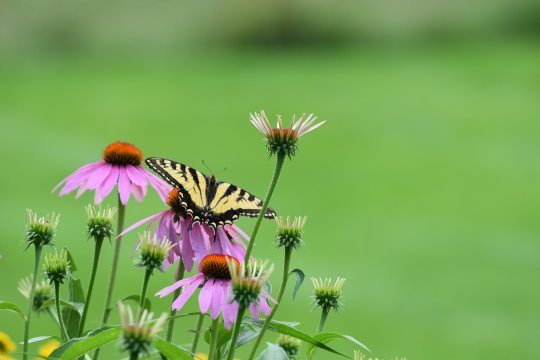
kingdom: Animalia
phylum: Arthropoda
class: Insecta
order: Lepidoptera
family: Papilionidae
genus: Pterourus
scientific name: Pterourus
